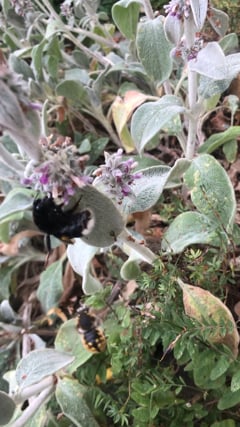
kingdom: Animalia
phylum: Arthropoda
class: Insecta
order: Hymenoptera
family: Apidae
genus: Bombus
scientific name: Bombus terrestris
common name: Buff-tailed bumblebee
